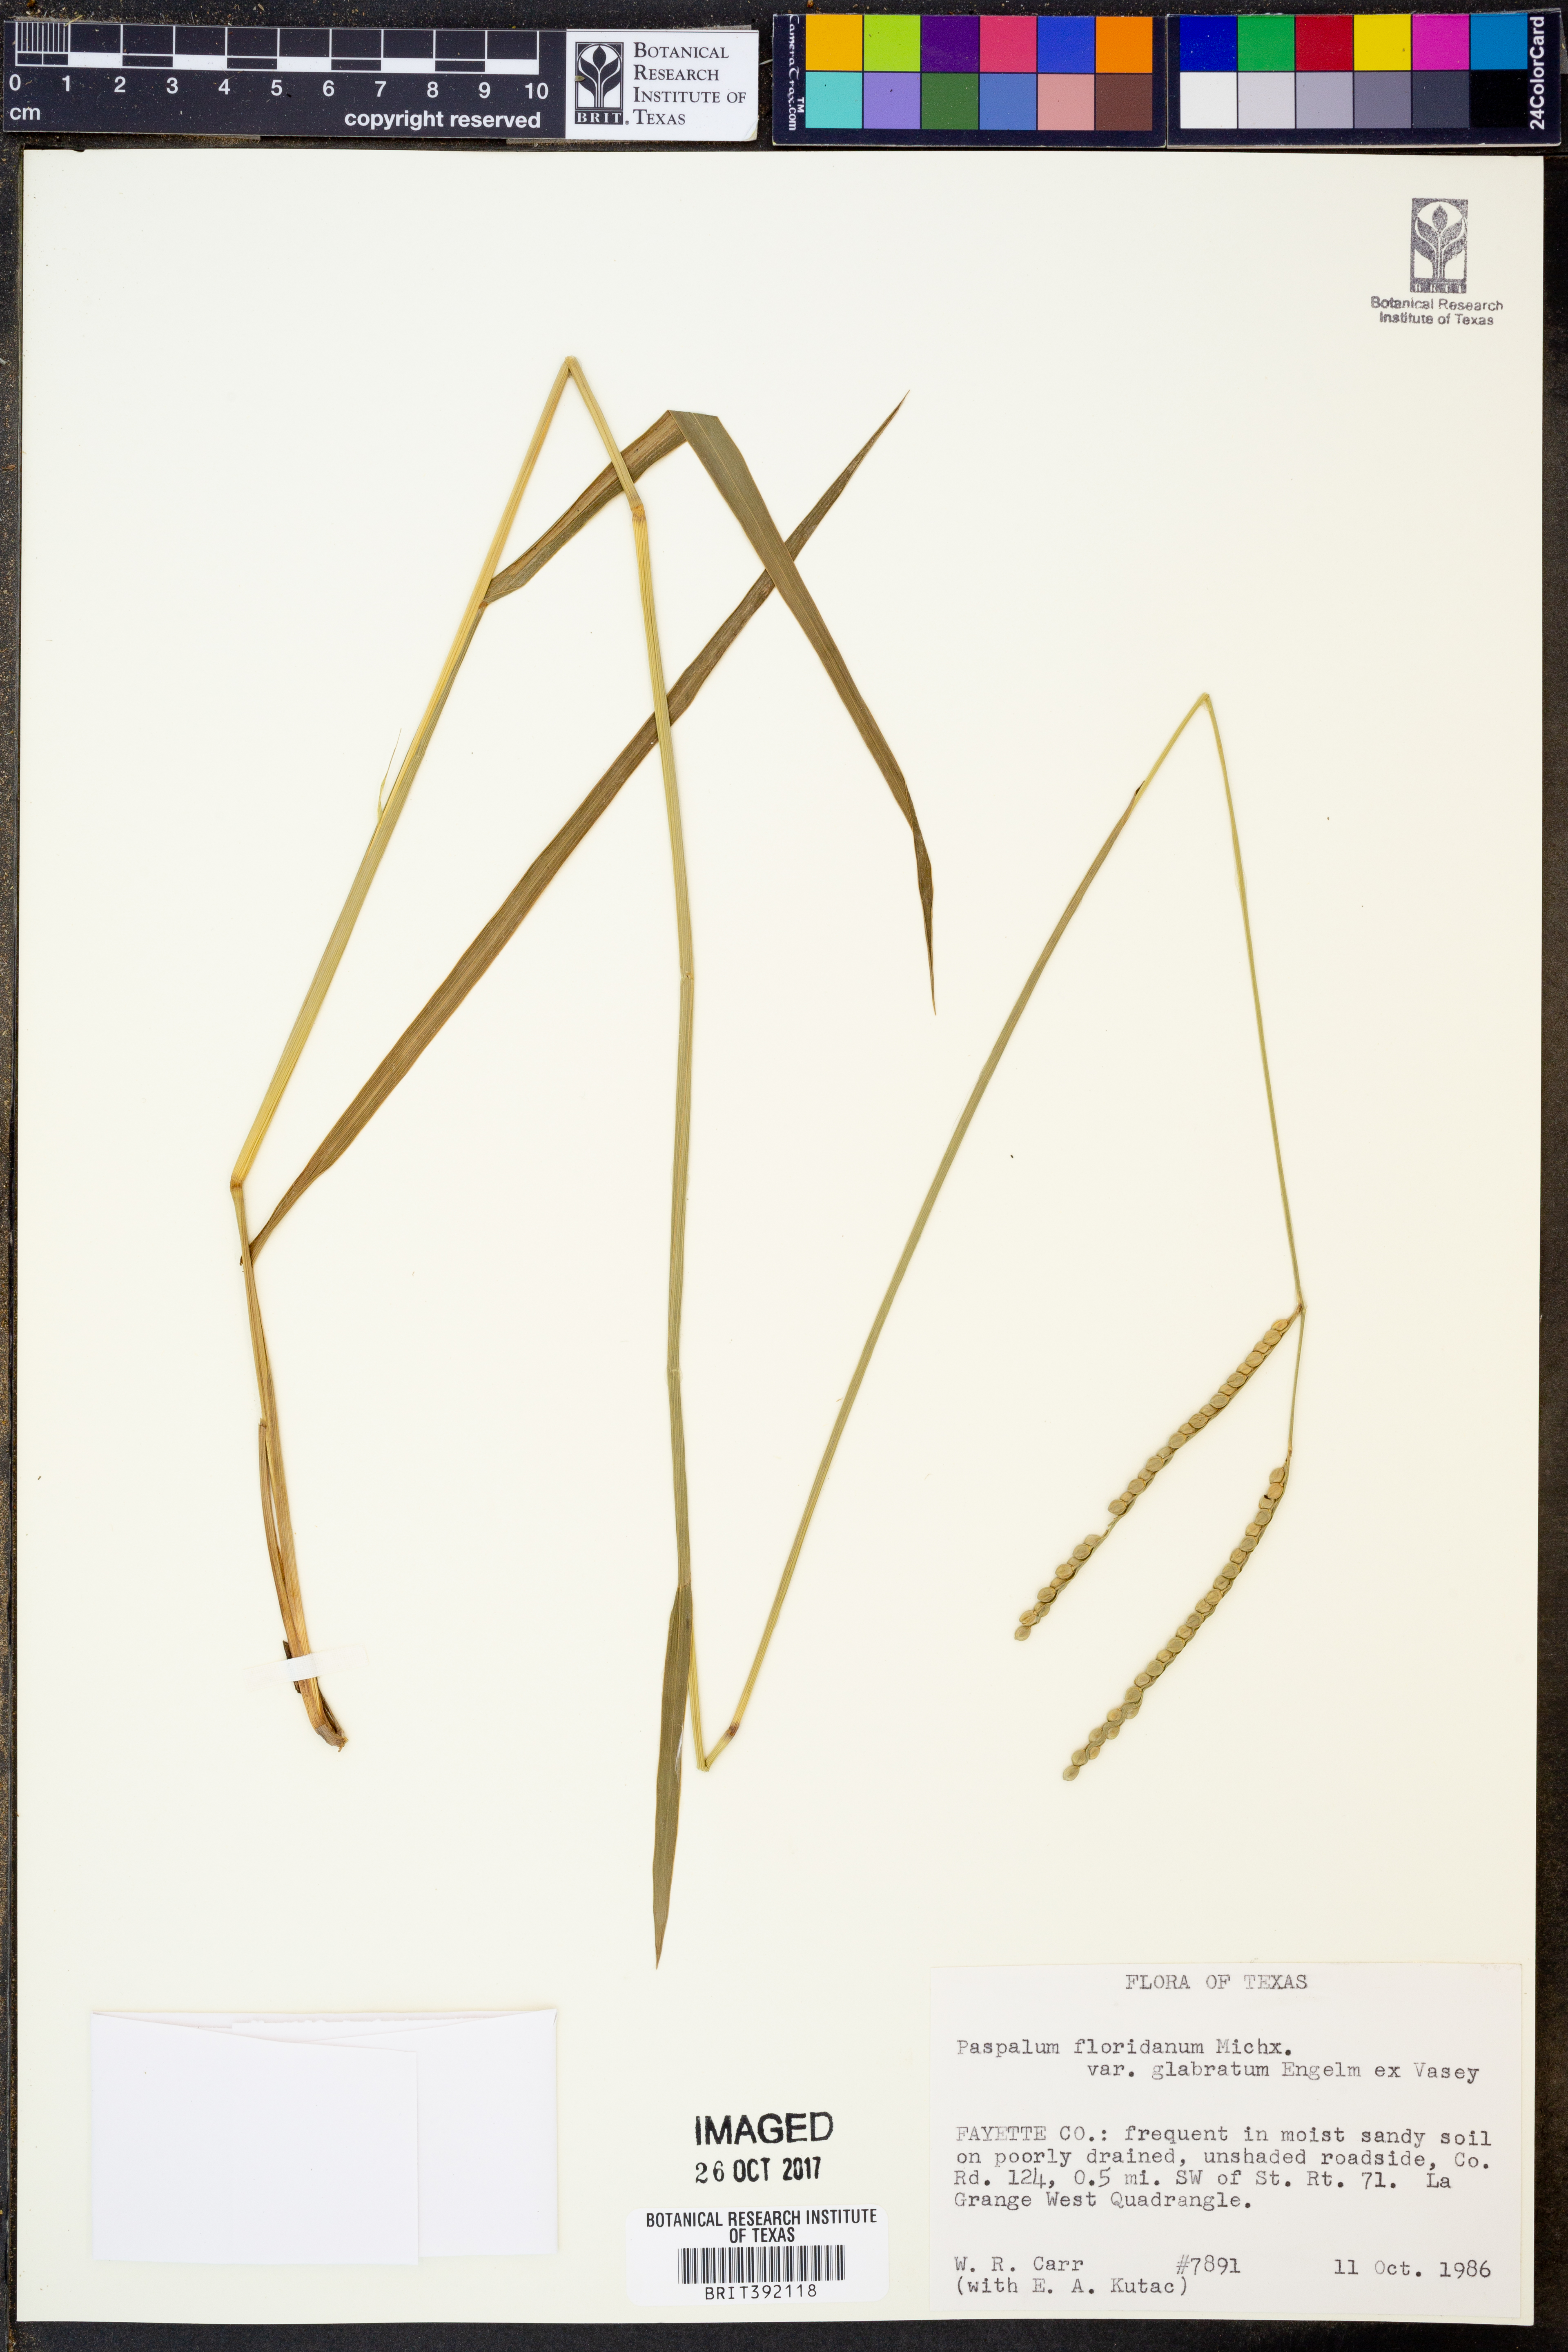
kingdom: Plantae
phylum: Tracheophyta
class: Liliopsida
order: Poales
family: Poaceae
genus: Paspalum
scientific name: Paspalum floridanum
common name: Florida paspalum
